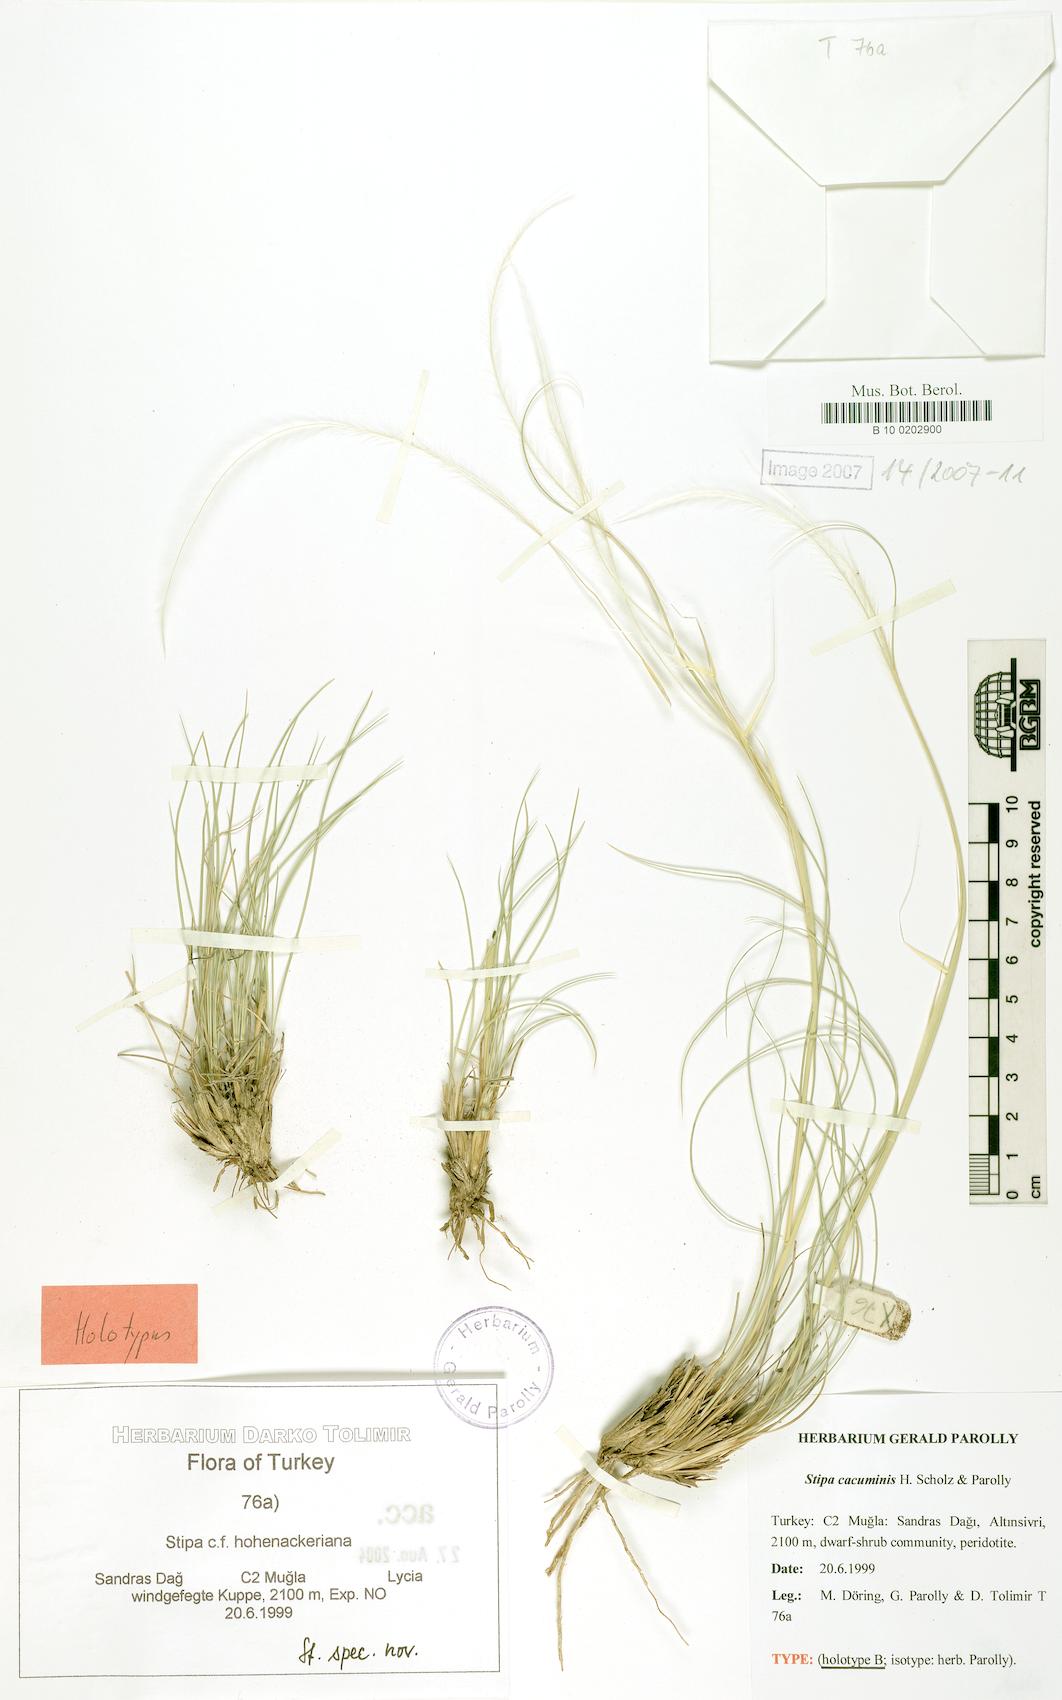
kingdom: Plantae
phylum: Tracheophyta
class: Liliopsida
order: Poales
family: Poaceae
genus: Stipa
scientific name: Stipa hohenackeriana
